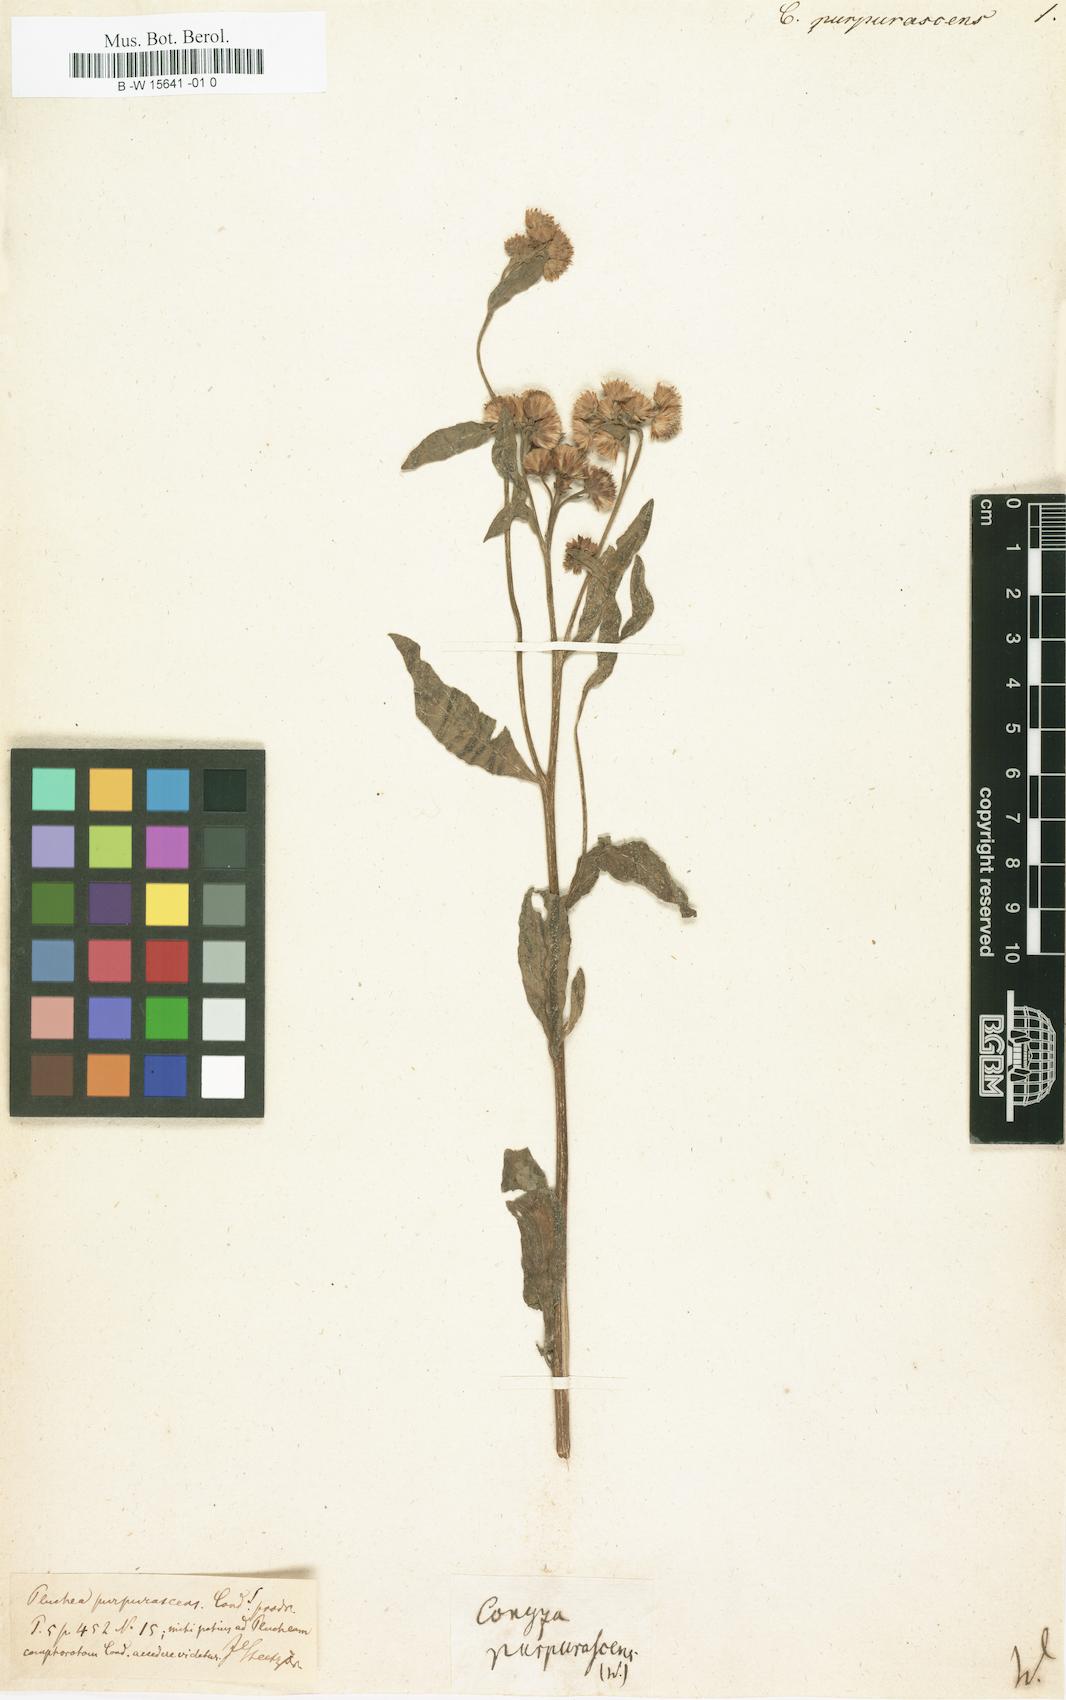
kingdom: Plantae
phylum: Tracheophyta
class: Magnoliopsida
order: Asterales
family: Asteraceae
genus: Pluchea
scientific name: Pluchea odorata
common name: Saltmarsh fleabane
